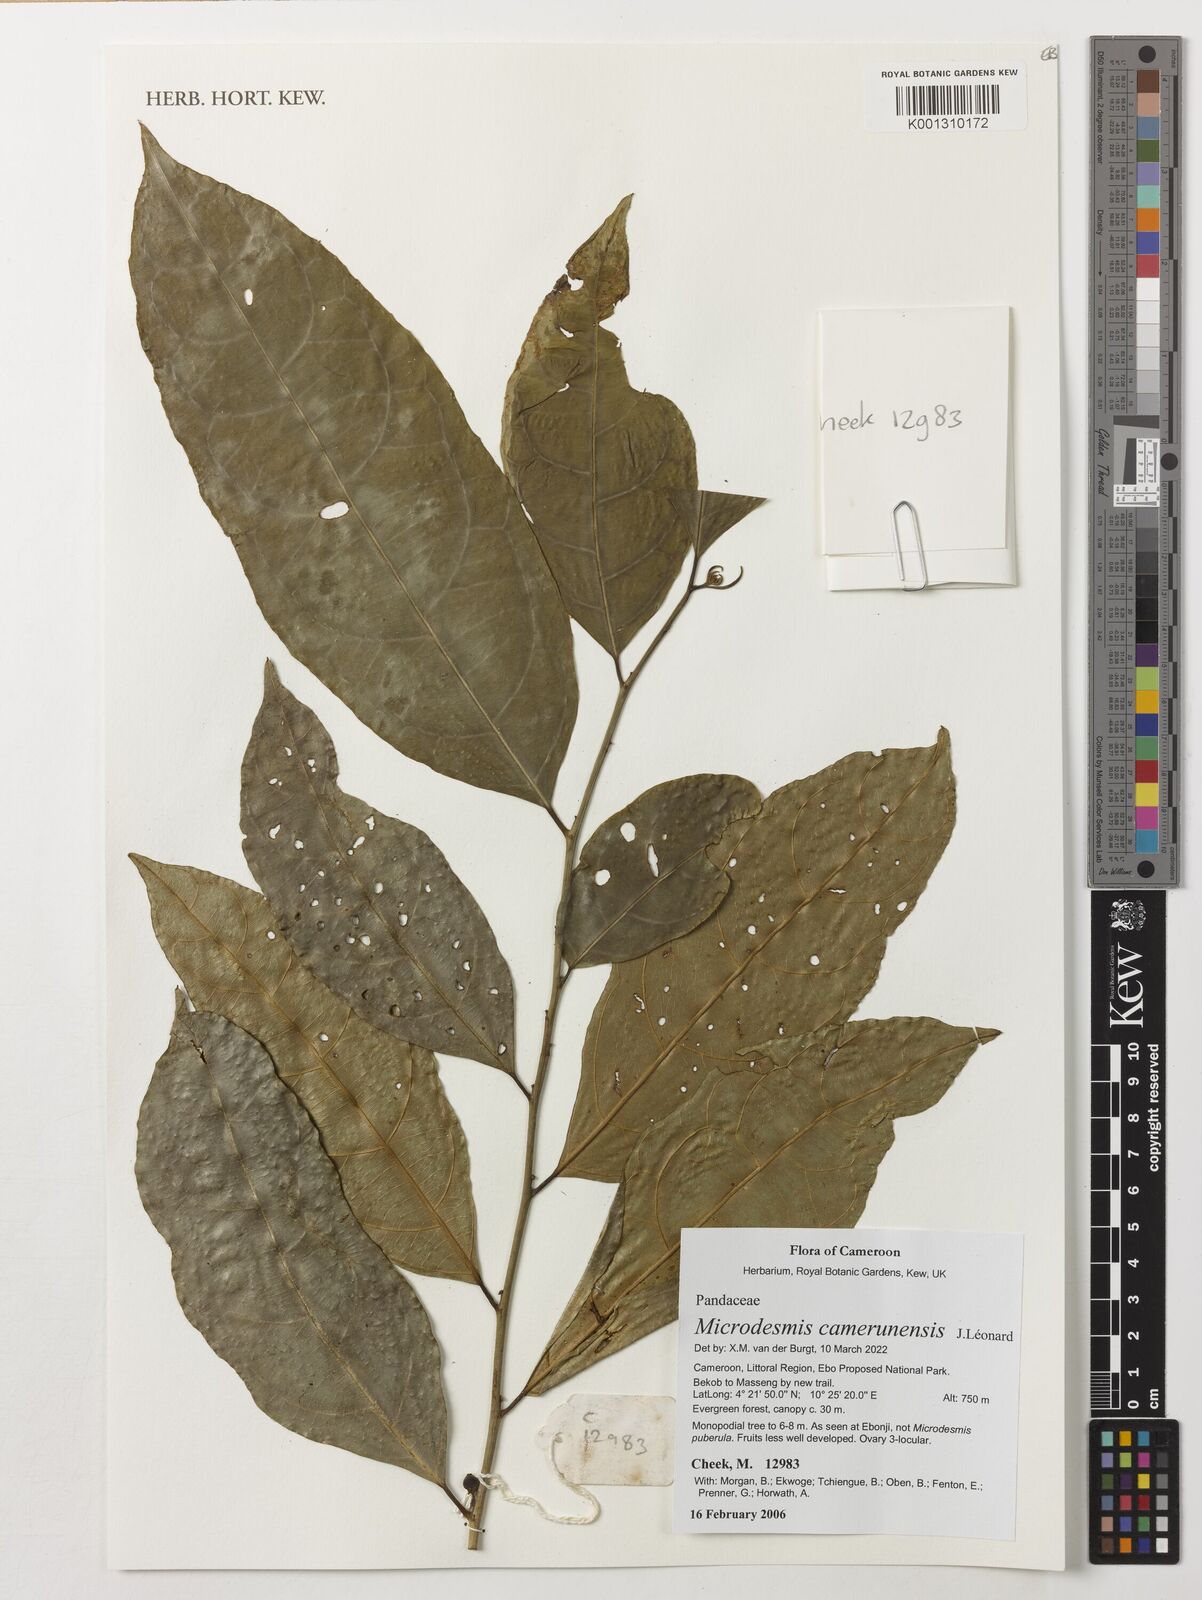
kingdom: Plantae
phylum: Tracheophyta
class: Magnoliopsida
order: Malpighiales
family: Pandaceae
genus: Microdesmis
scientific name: Microdesmis camerunensis
